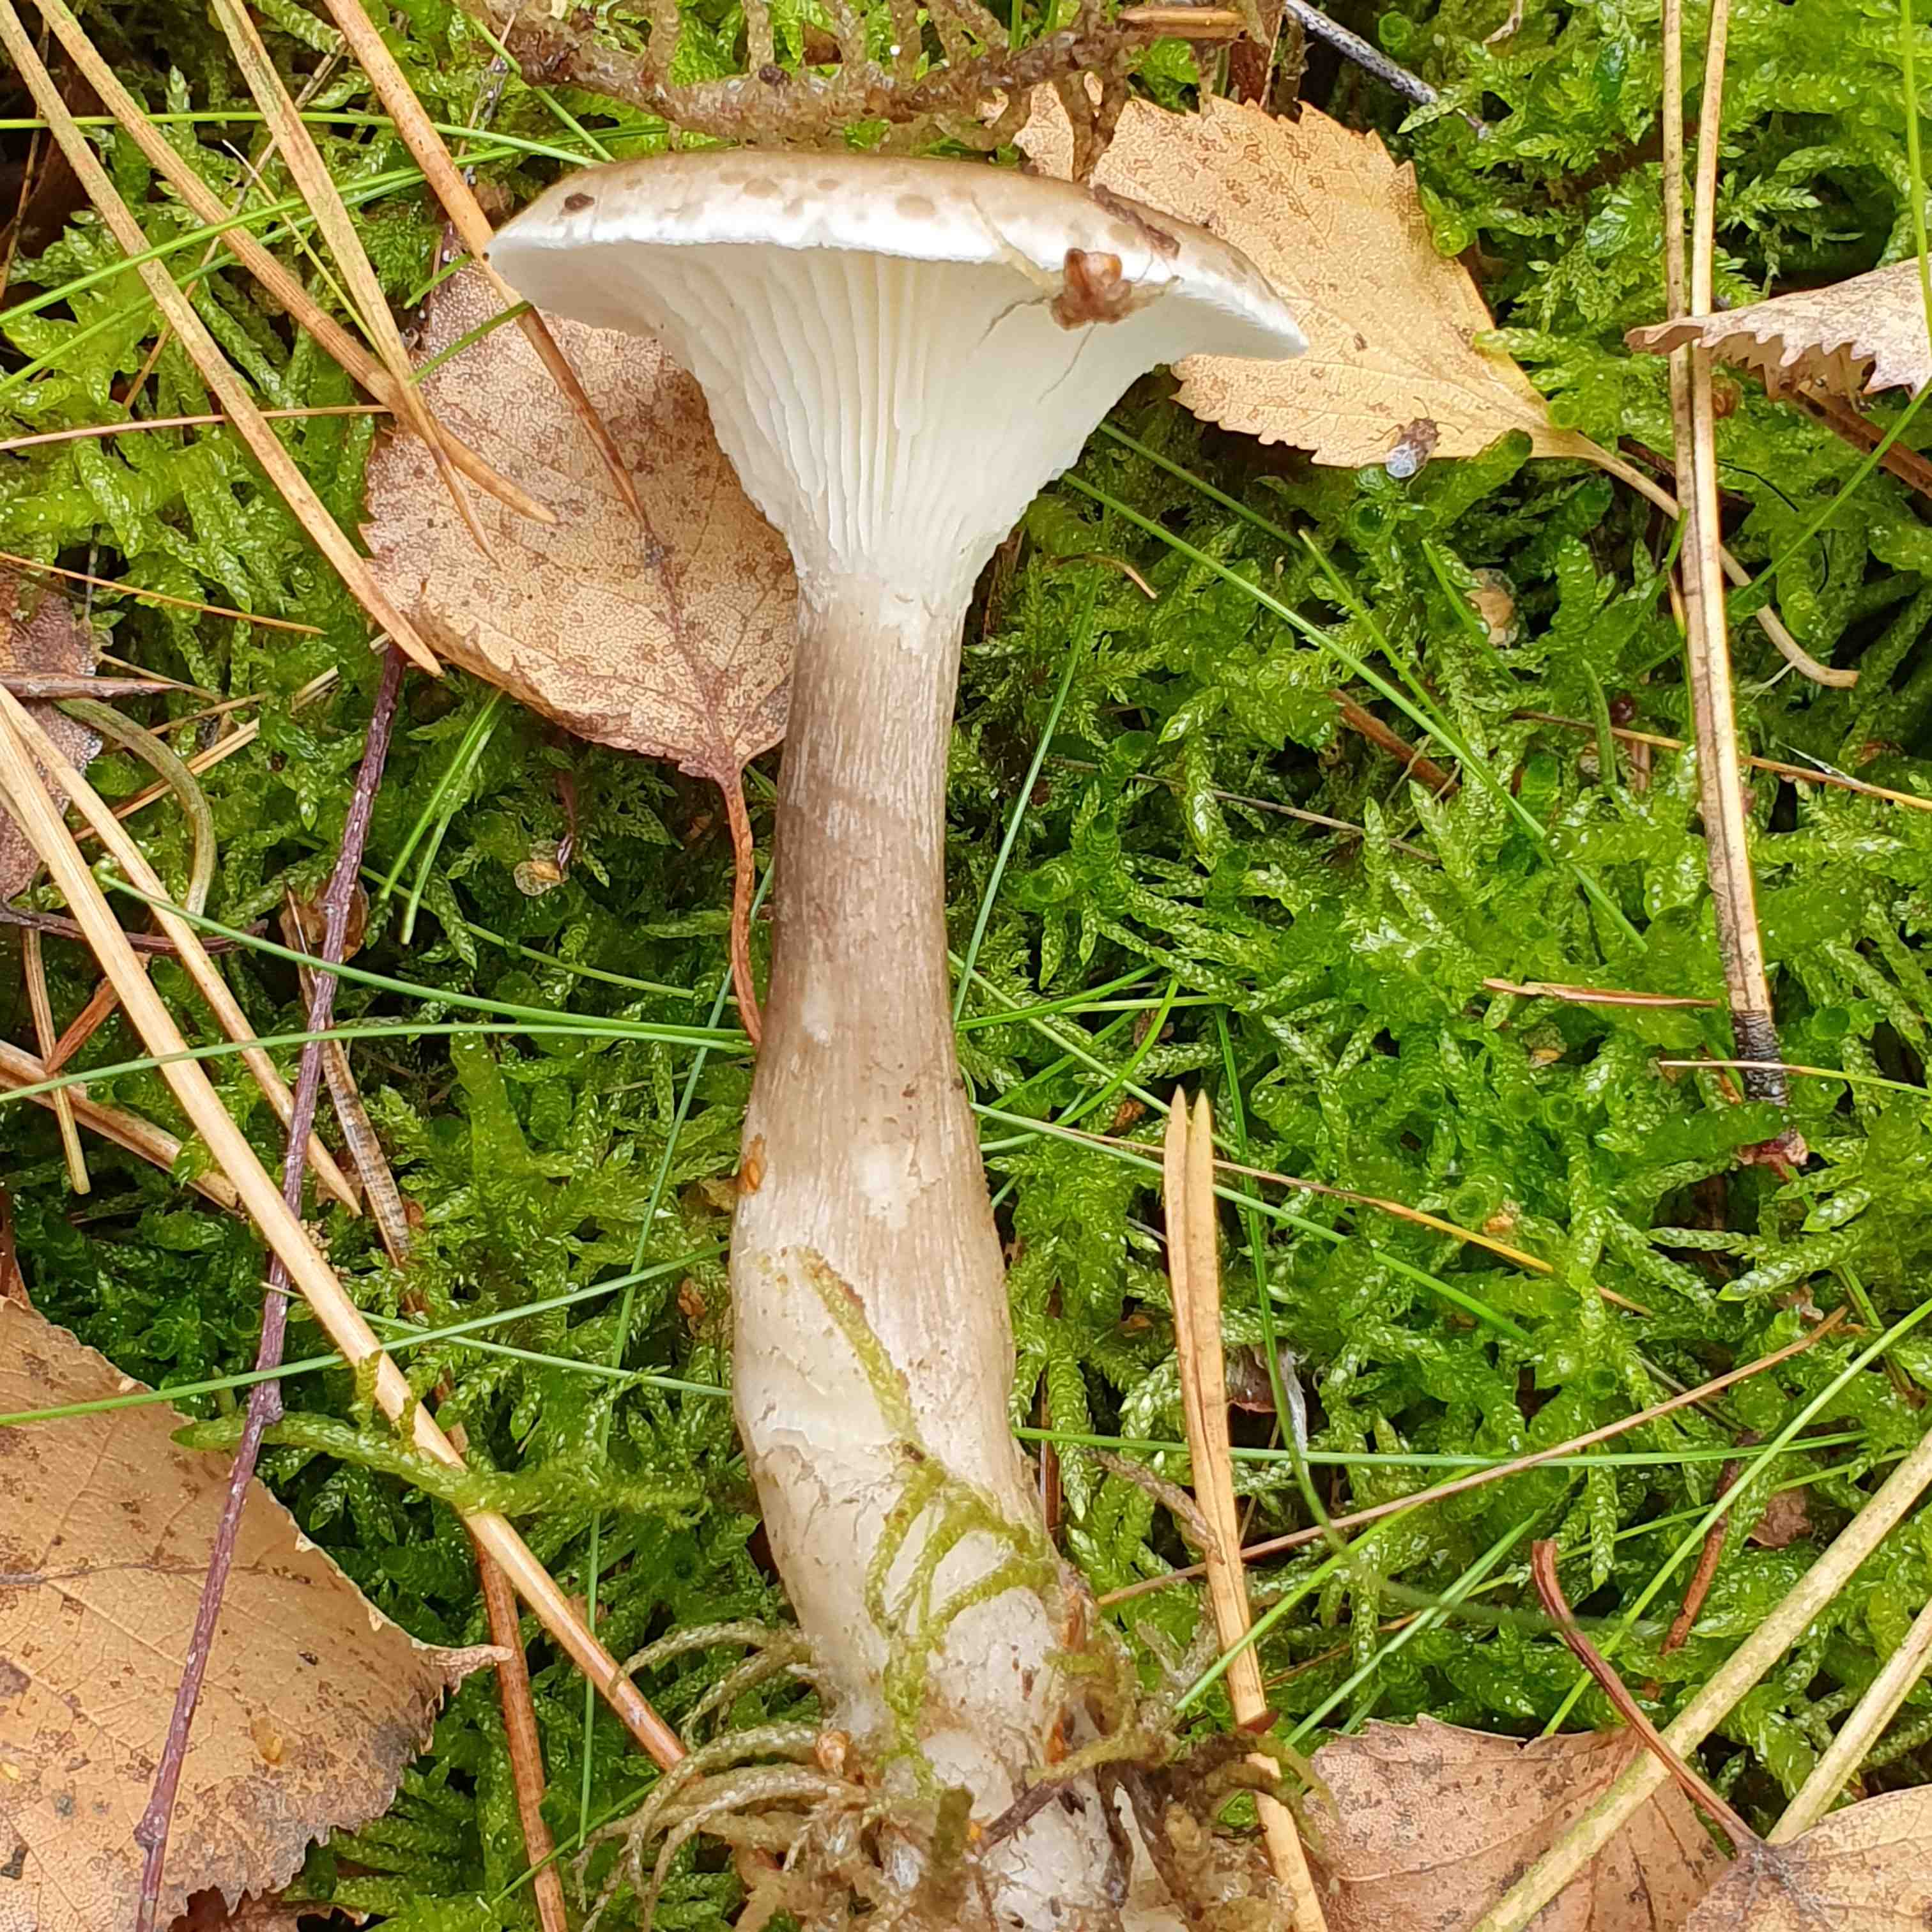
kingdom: Fungi
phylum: Basidiomycota
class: Agaricomycetes
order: Agaricales
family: Hygrophoraceae
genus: Ampulloclitocybe
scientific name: Ampulloclitocybe clavipes
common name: køllefod
